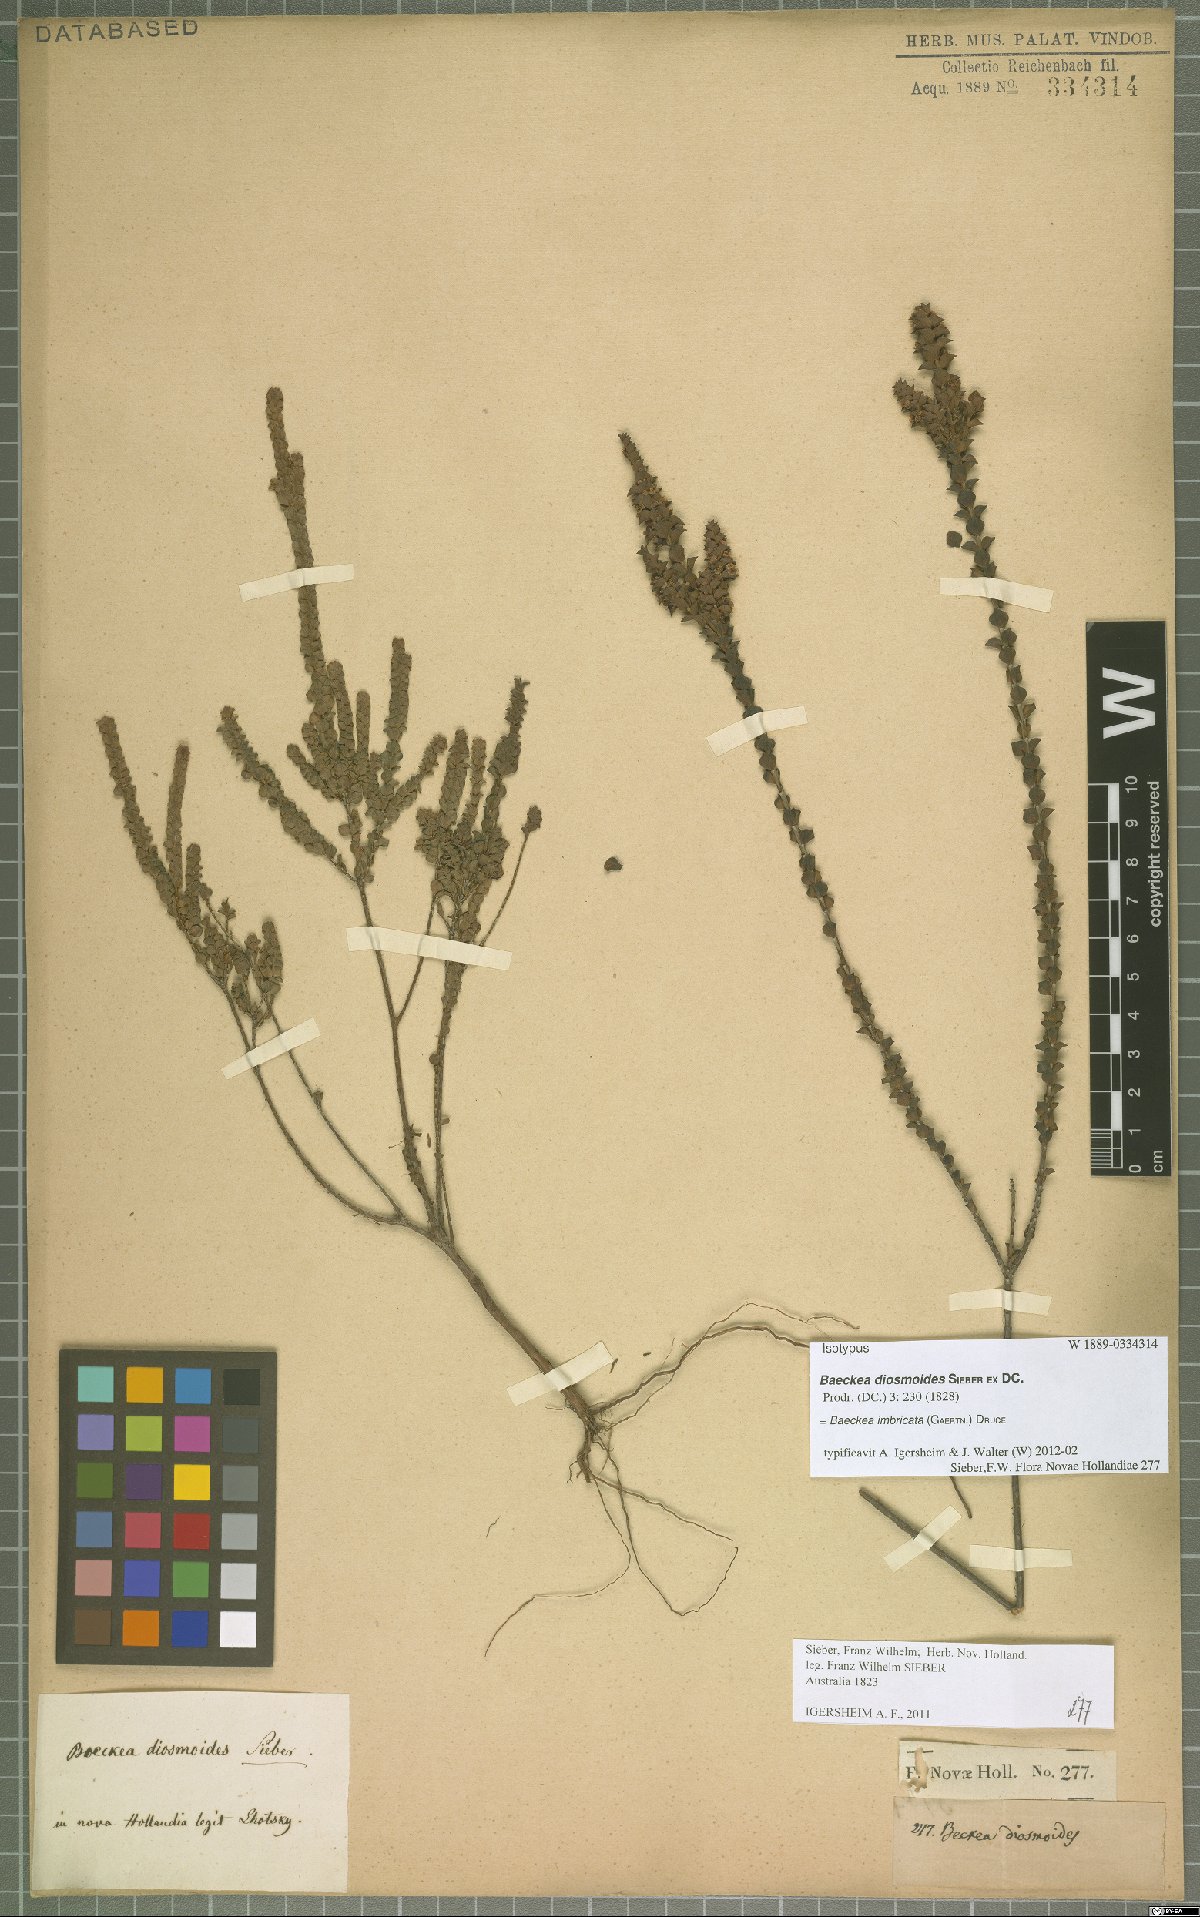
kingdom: Plantae
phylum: Tracheophyta
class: Magnoliopsida
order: Myrtales
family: Myrtaceae
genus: Baeckea
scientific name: Baeckea imbricata
